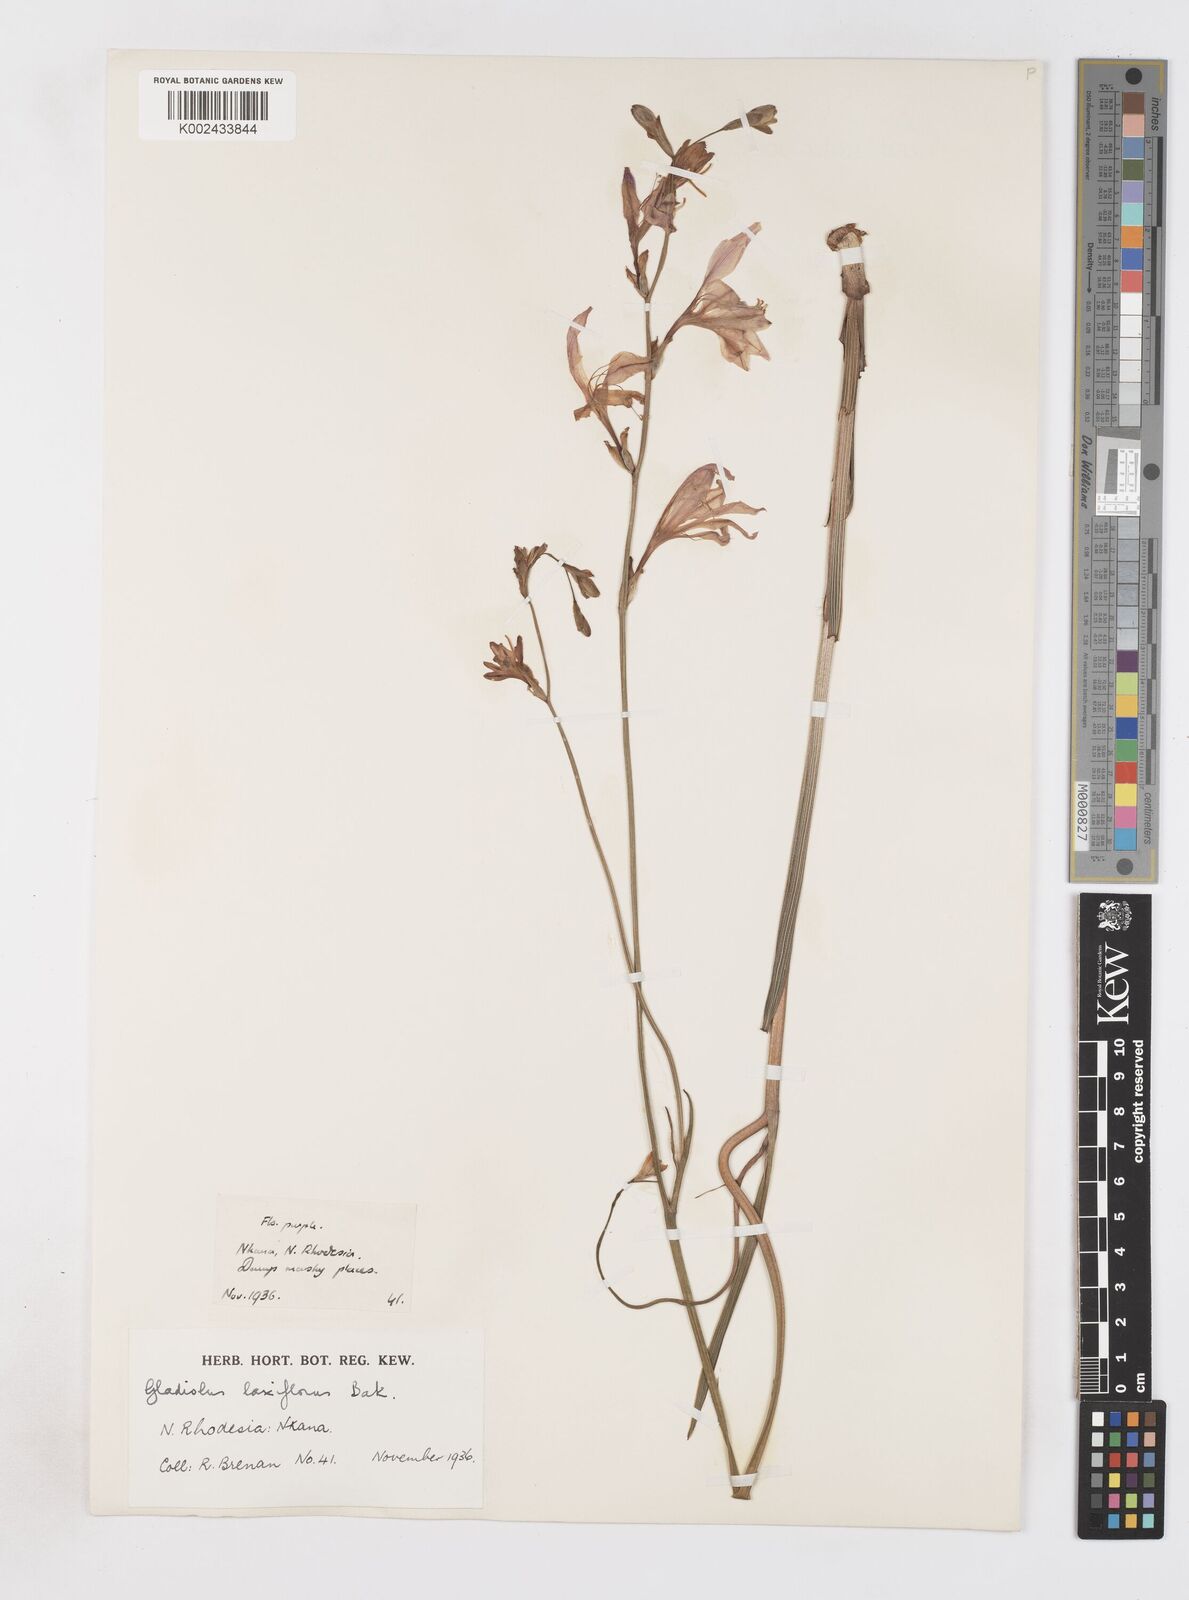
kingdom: Plantae
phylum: Tracheophyta
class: Liliopsida
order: Asparagales
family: Iridaceae
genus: Gladiolus
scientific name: Gladiolus laxiflorus
